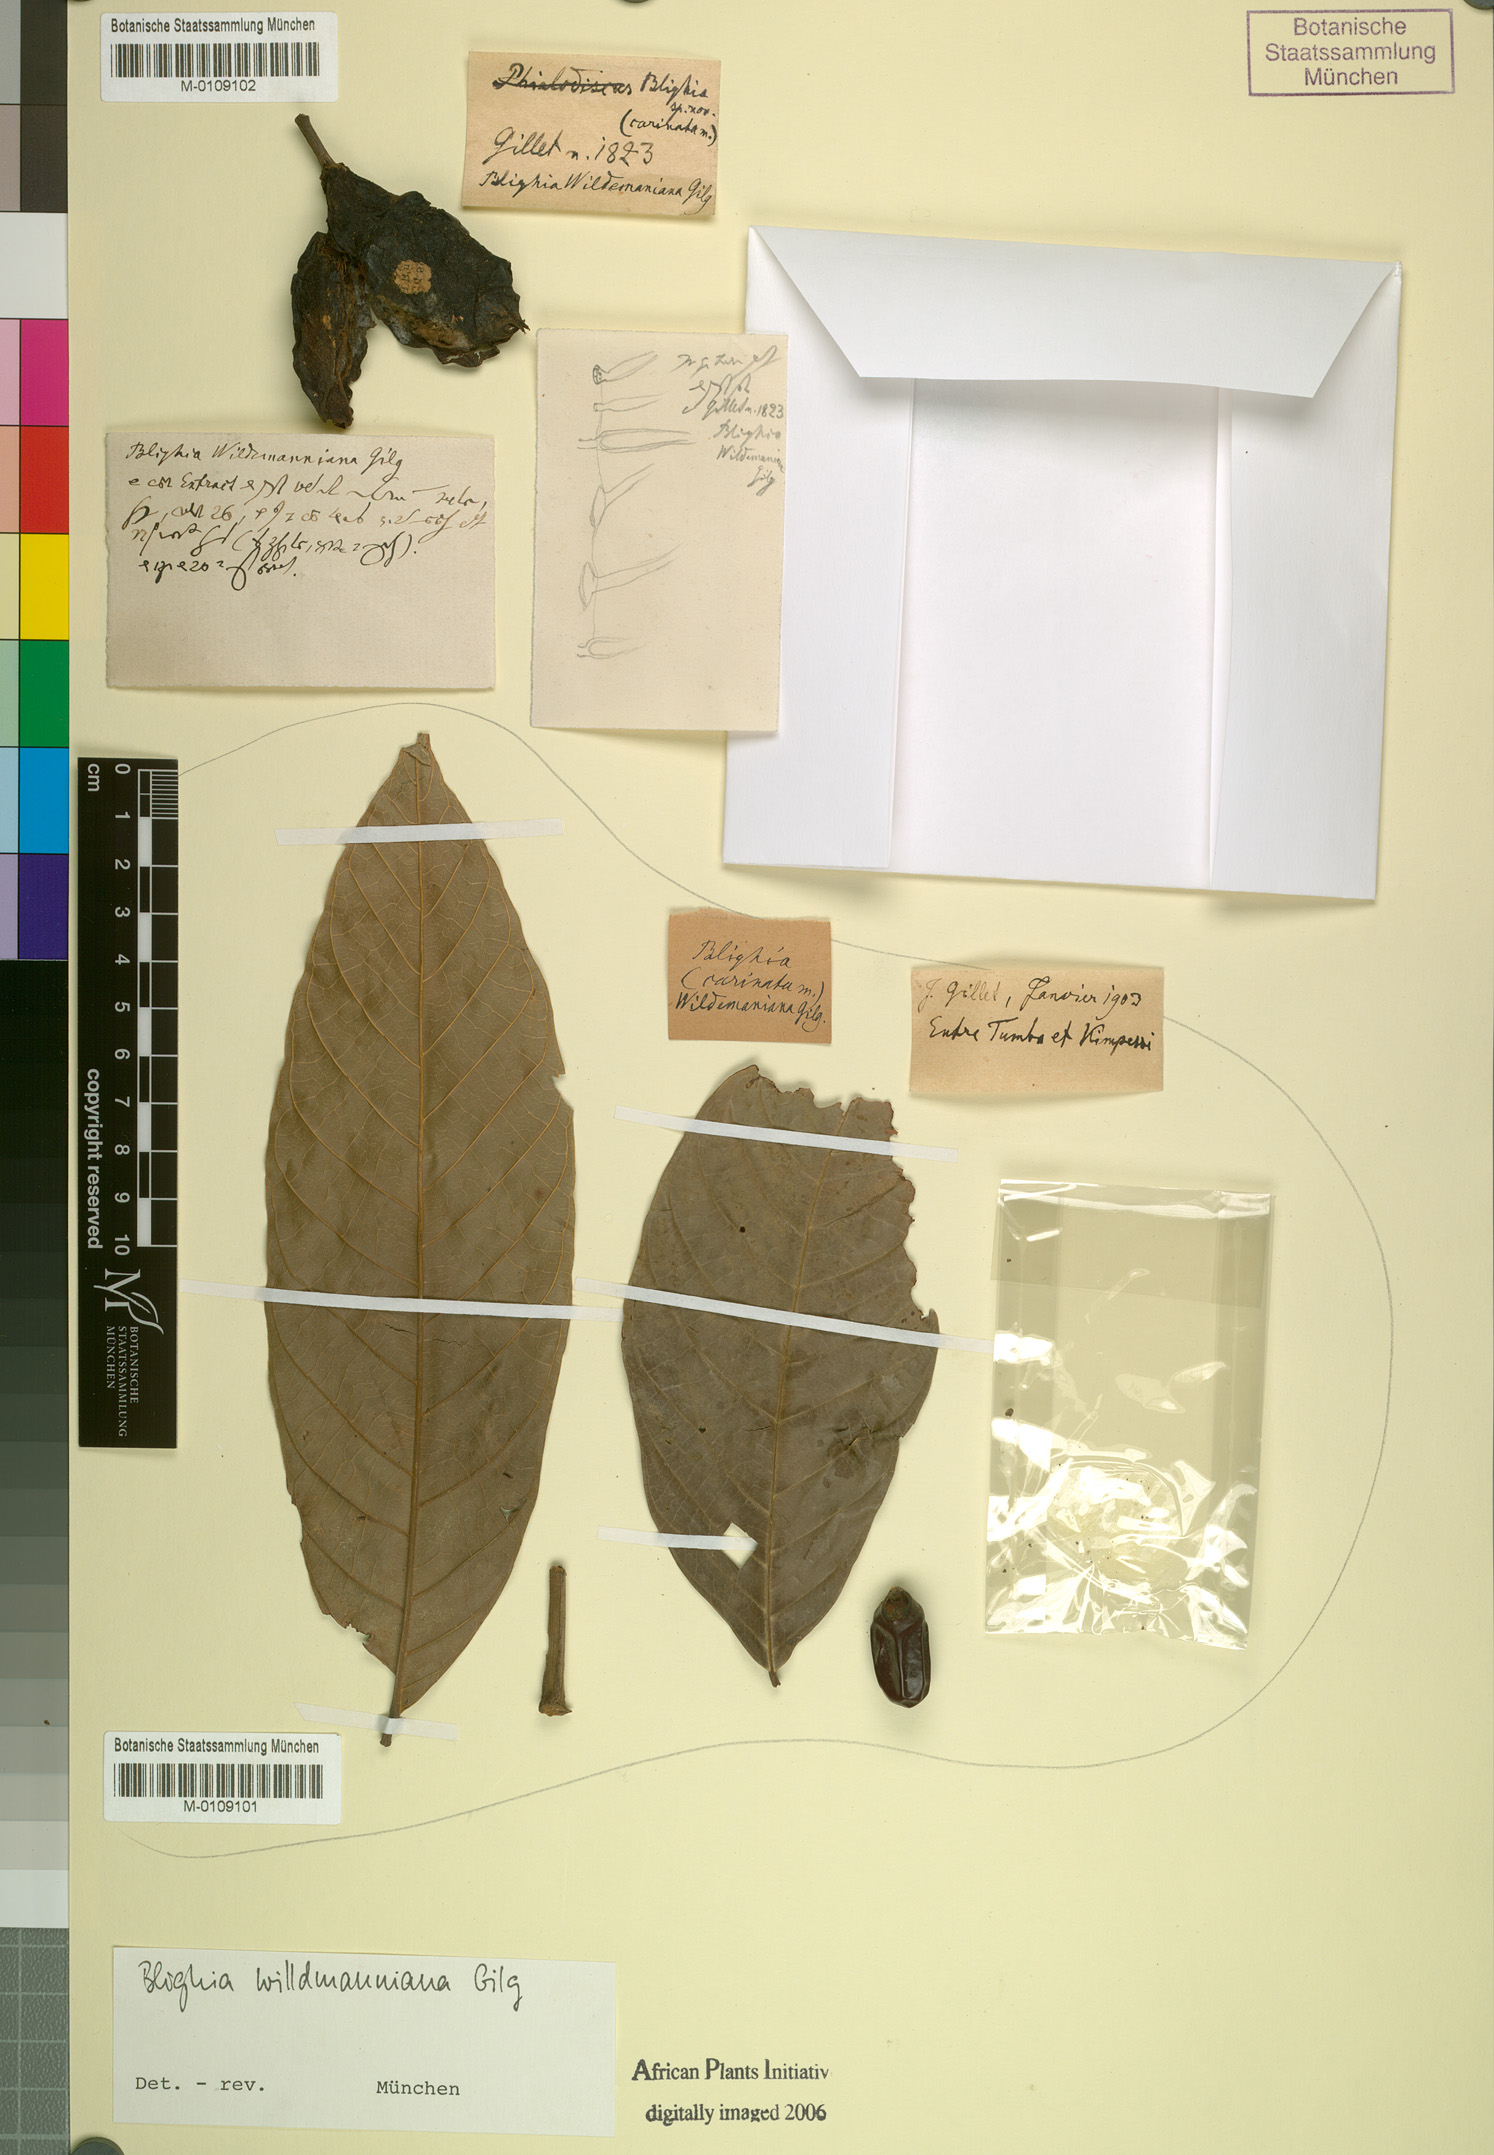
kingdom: Plantae
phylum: Tracheophyta
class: Magnoliopsida
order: Sapindales
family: Sapindaceae
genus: Blighia
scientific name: Blighia welwitschii
